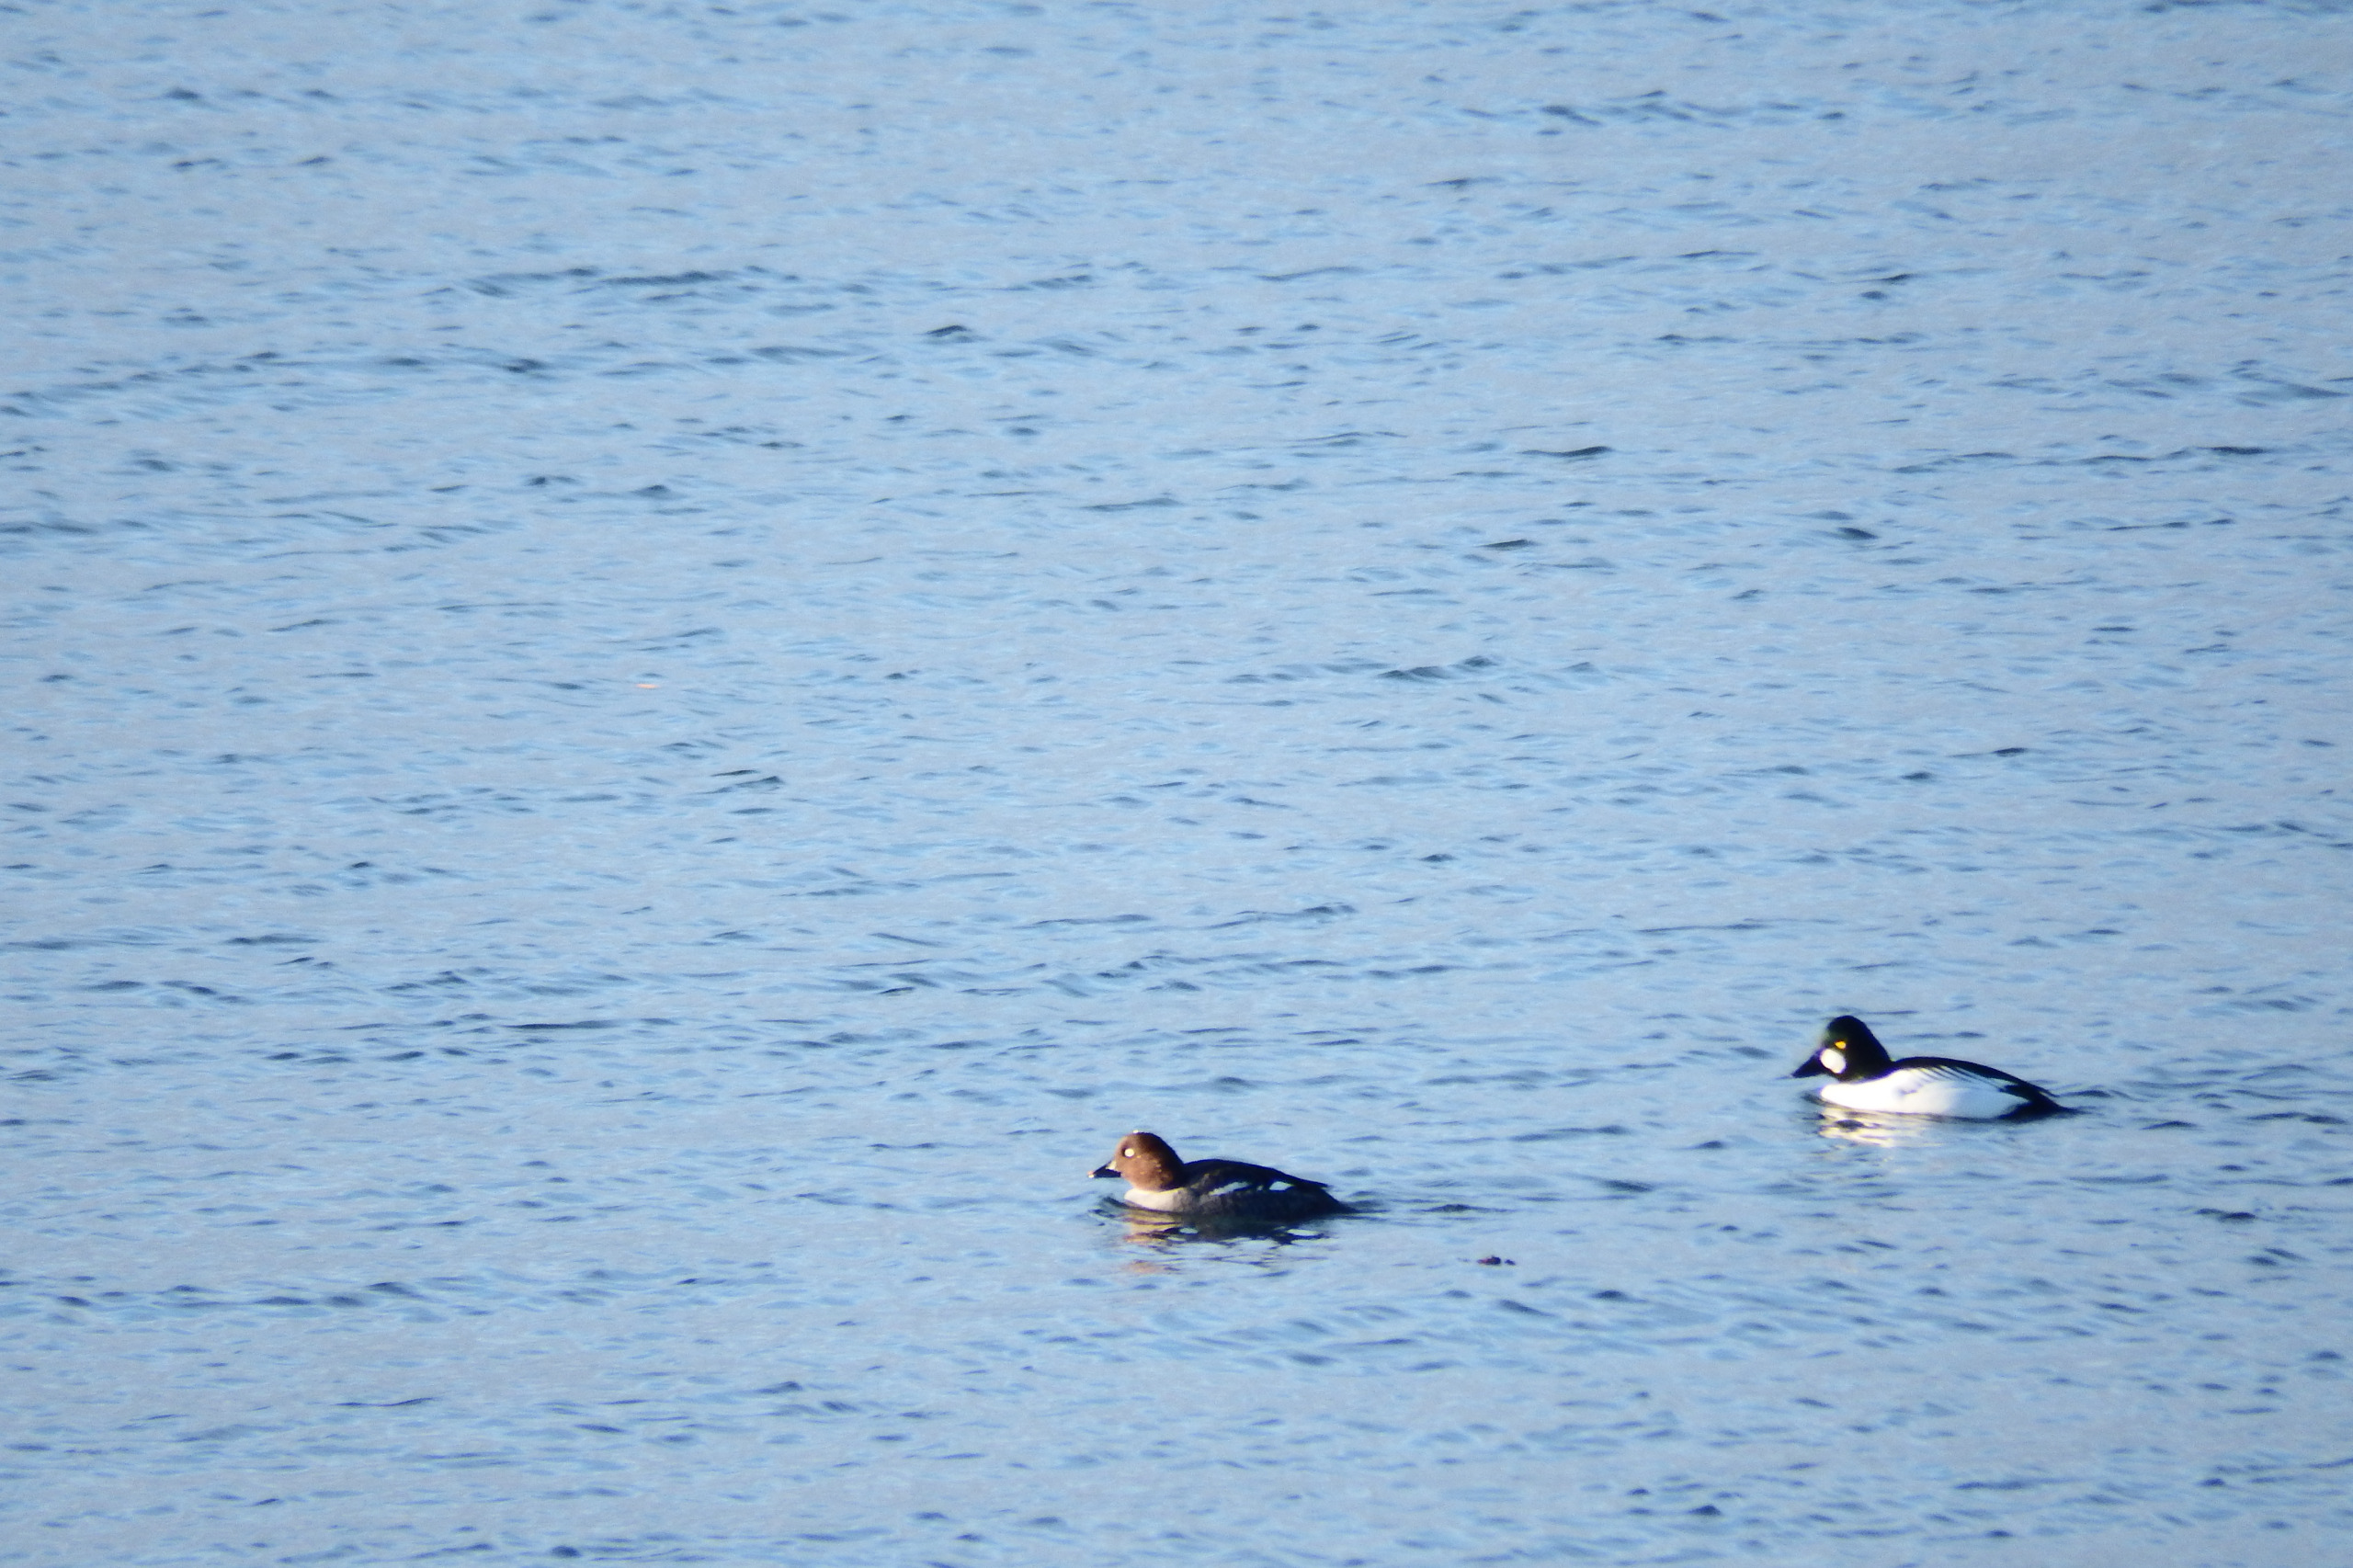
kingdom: Animalia
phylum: Chordata
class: Aves
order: Anseriformes
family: Anatidae
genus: Bucephala
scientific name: Bucephala clangula
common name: Hvinand
